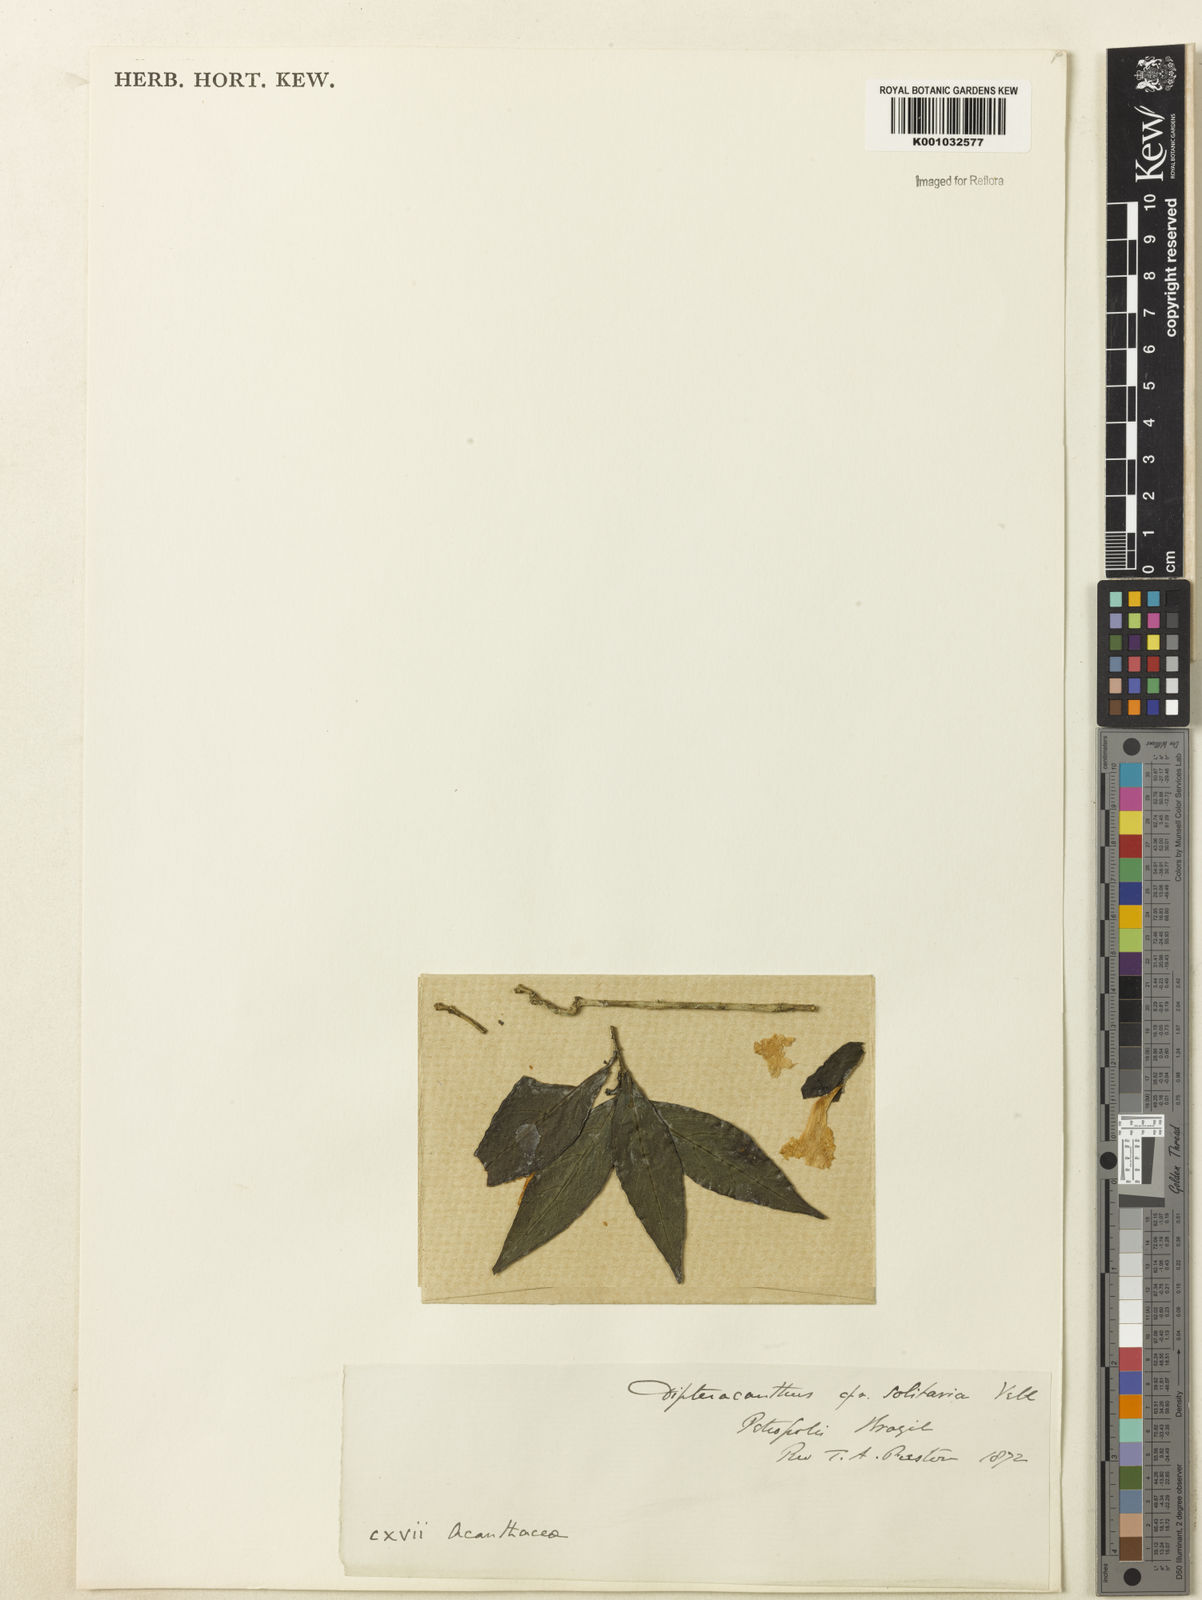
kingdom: Plantae
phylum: Tracheophyta
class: Magnoliopsida
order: Lamiales
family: Acanthaceae
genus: Ruellia
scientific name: Ruellia solitaria
